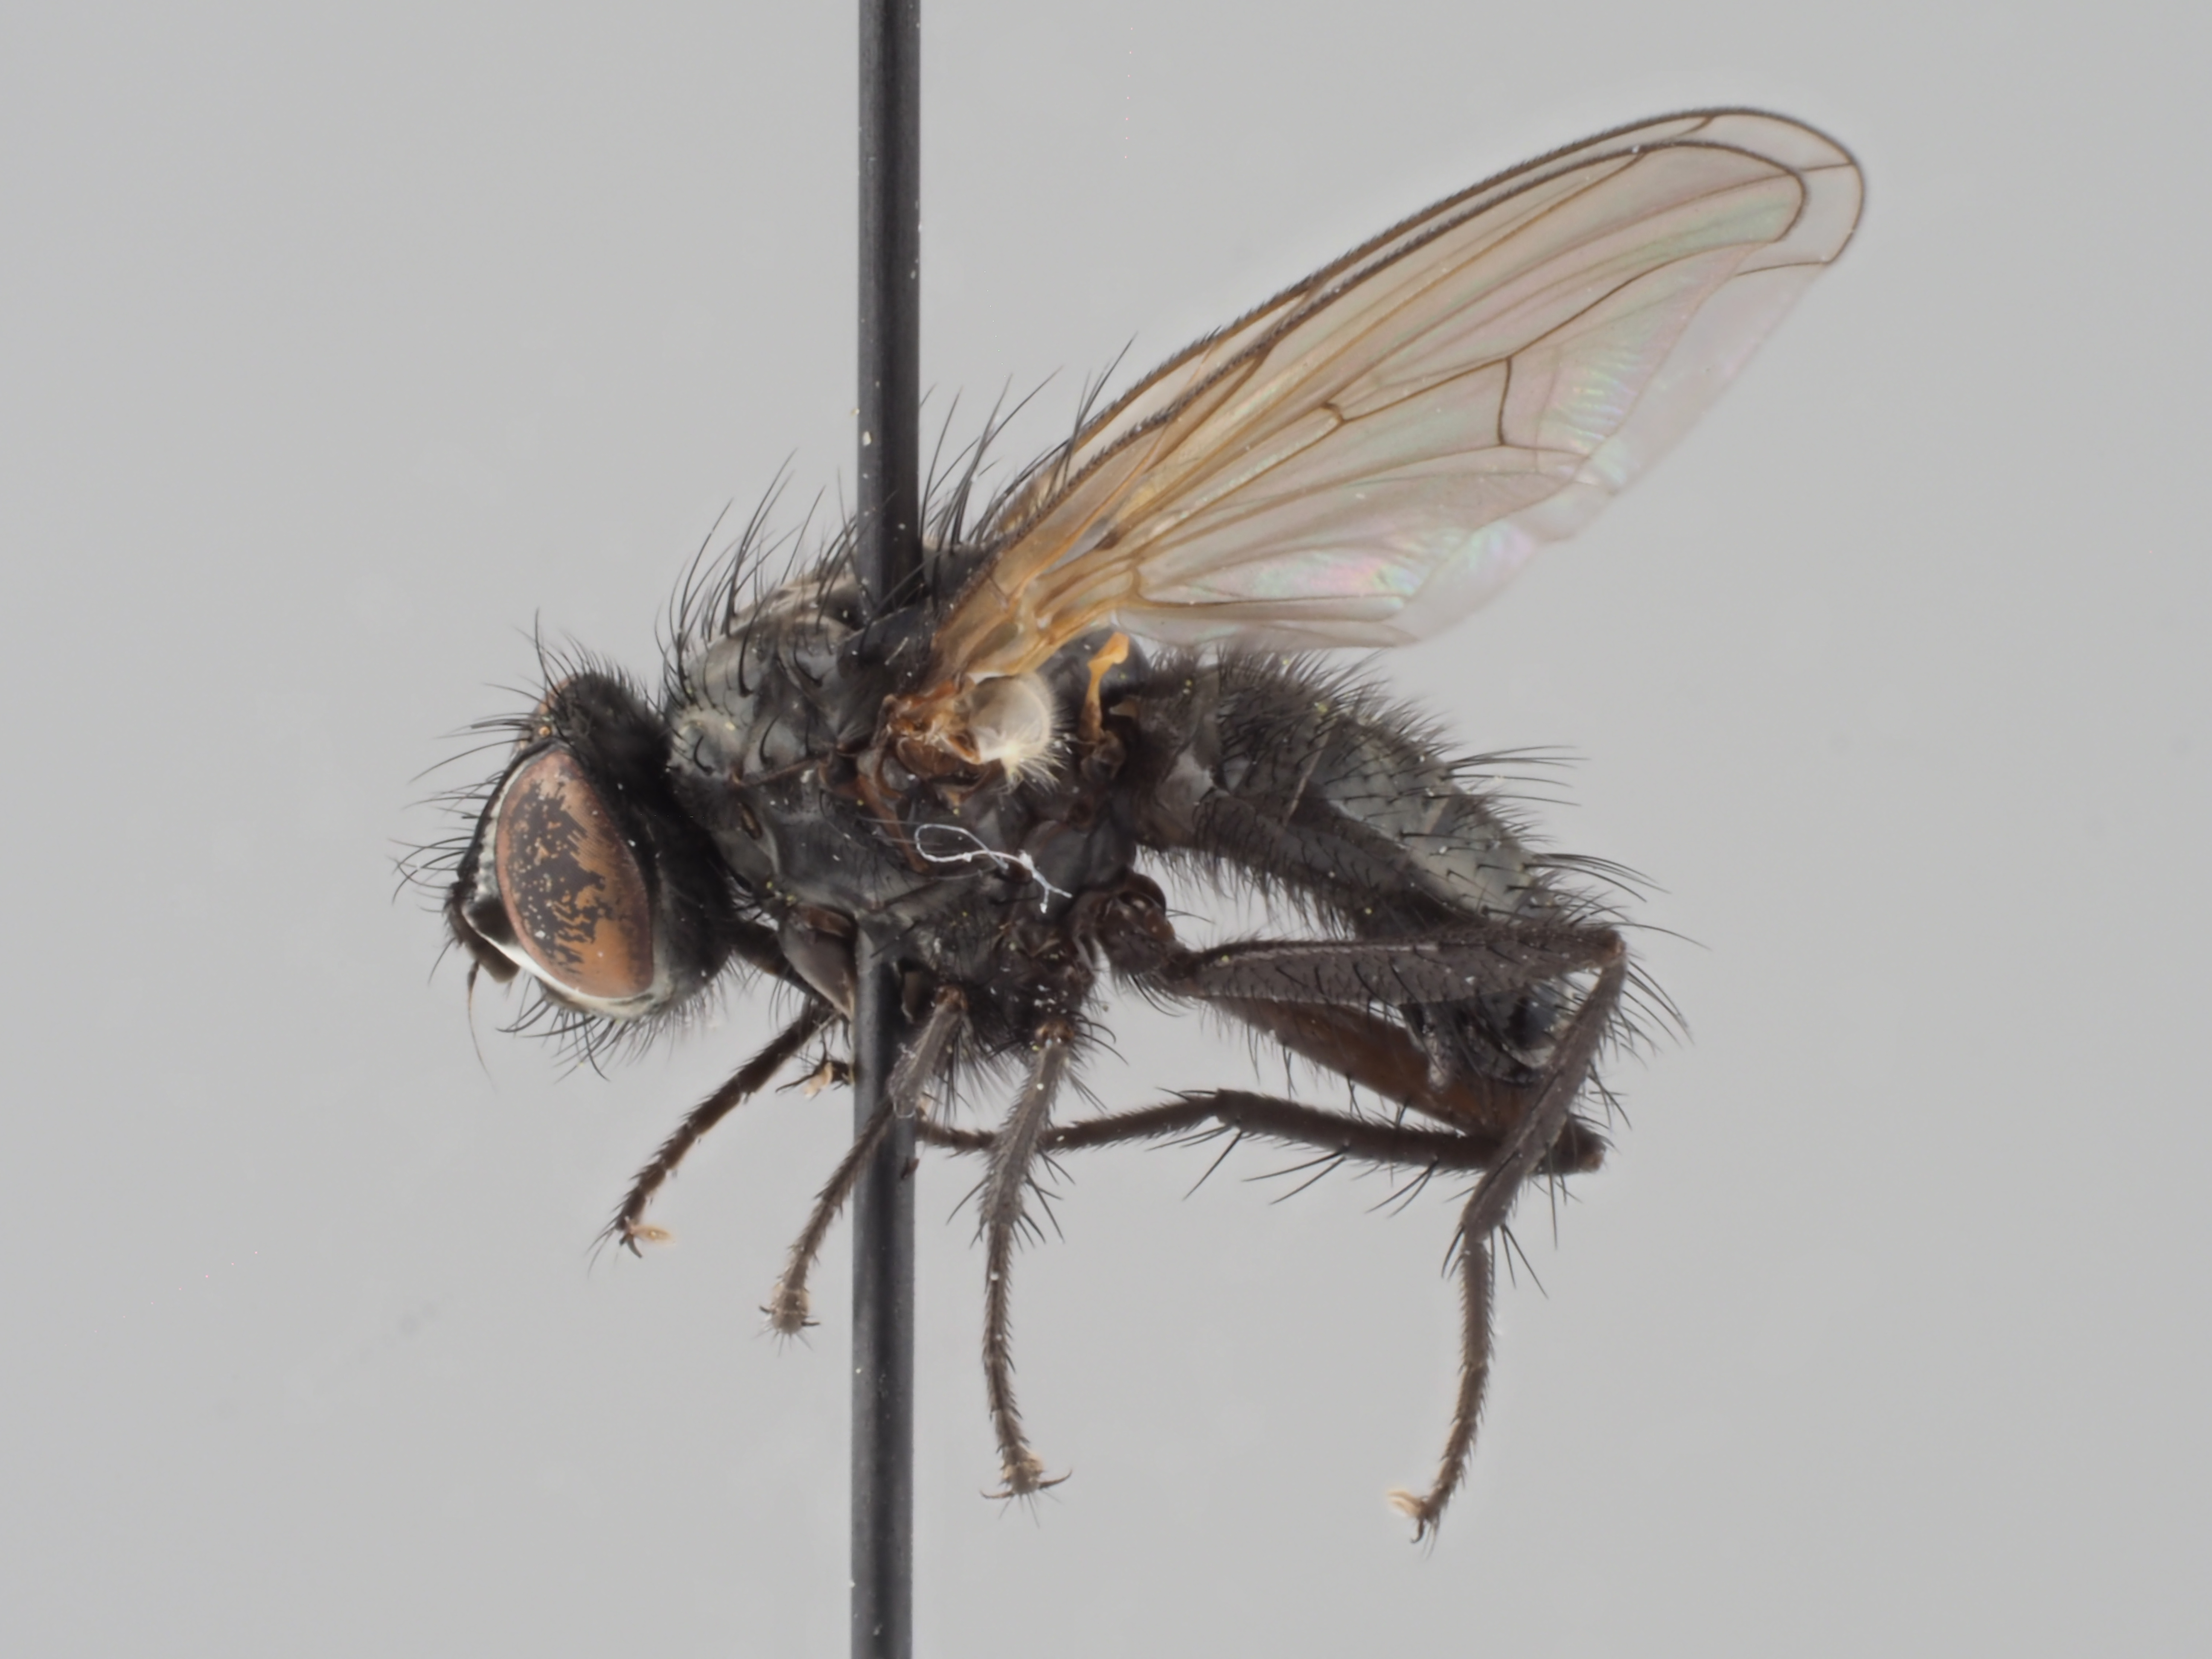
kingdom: Animalia
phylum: Arthropoda
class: Insecta
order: Diptera
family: Anthomyiidae
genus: Alliopsis
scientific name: Alliopsis billbergi
